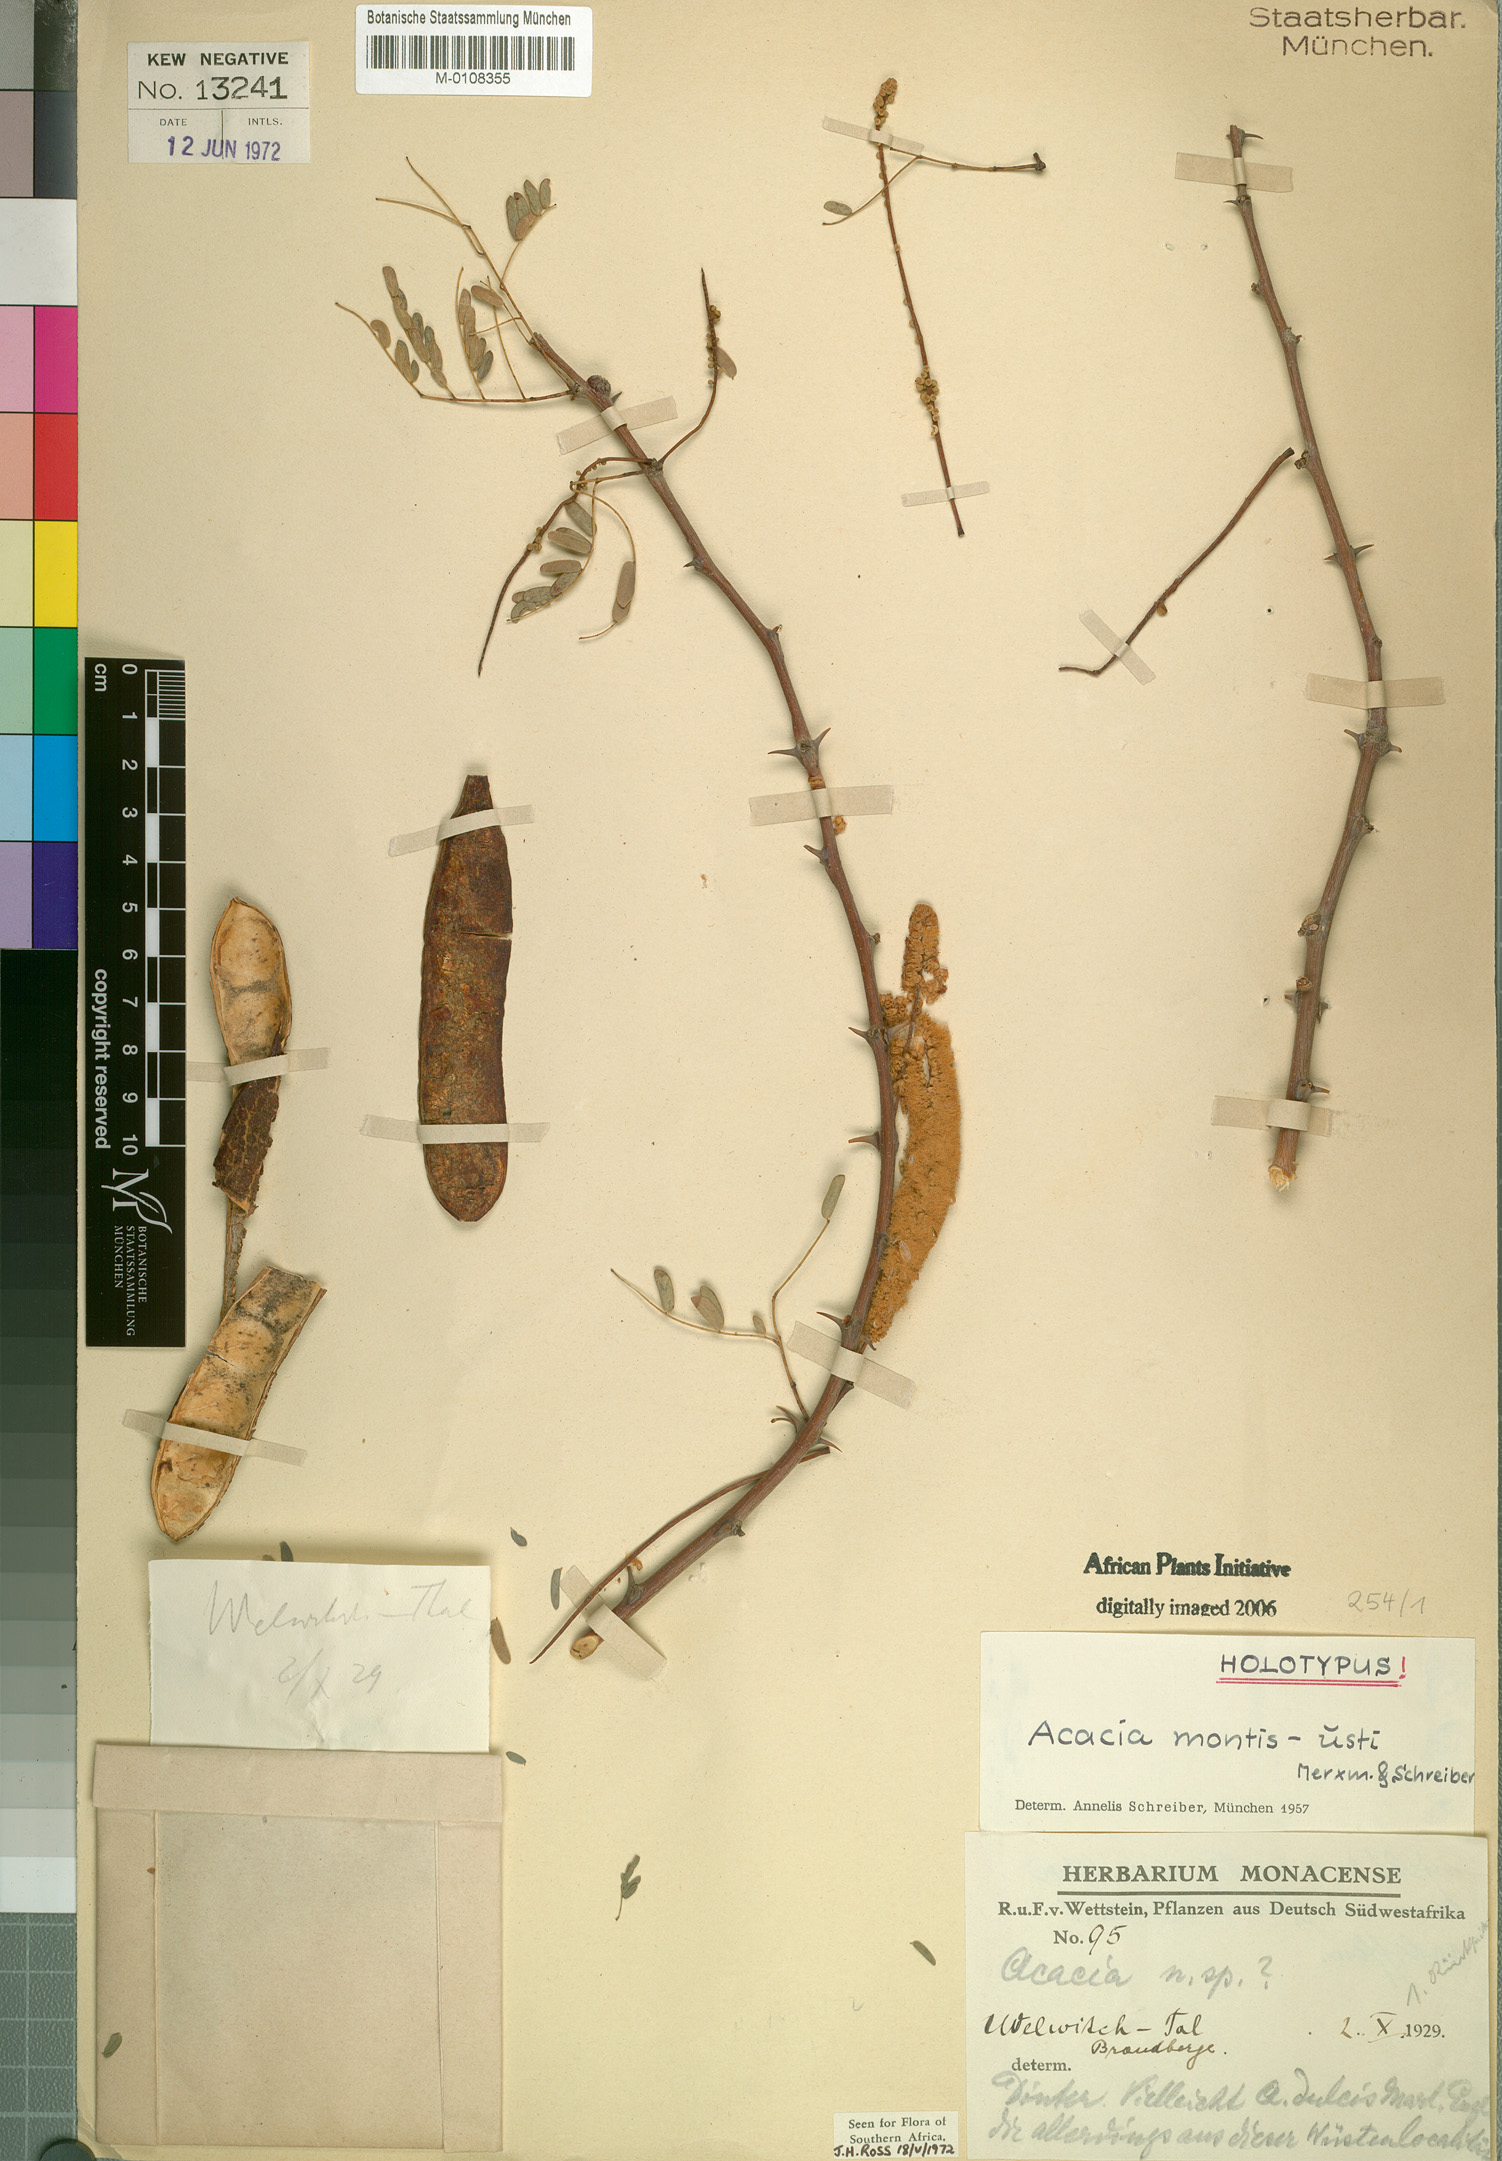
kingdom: Plantae
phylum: Tracheophyta
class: Magnoliopsida
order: Fabales
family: Fabaceae
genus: Senegalia
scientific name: Senegalia montis-usti
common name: Brandberg acacia
